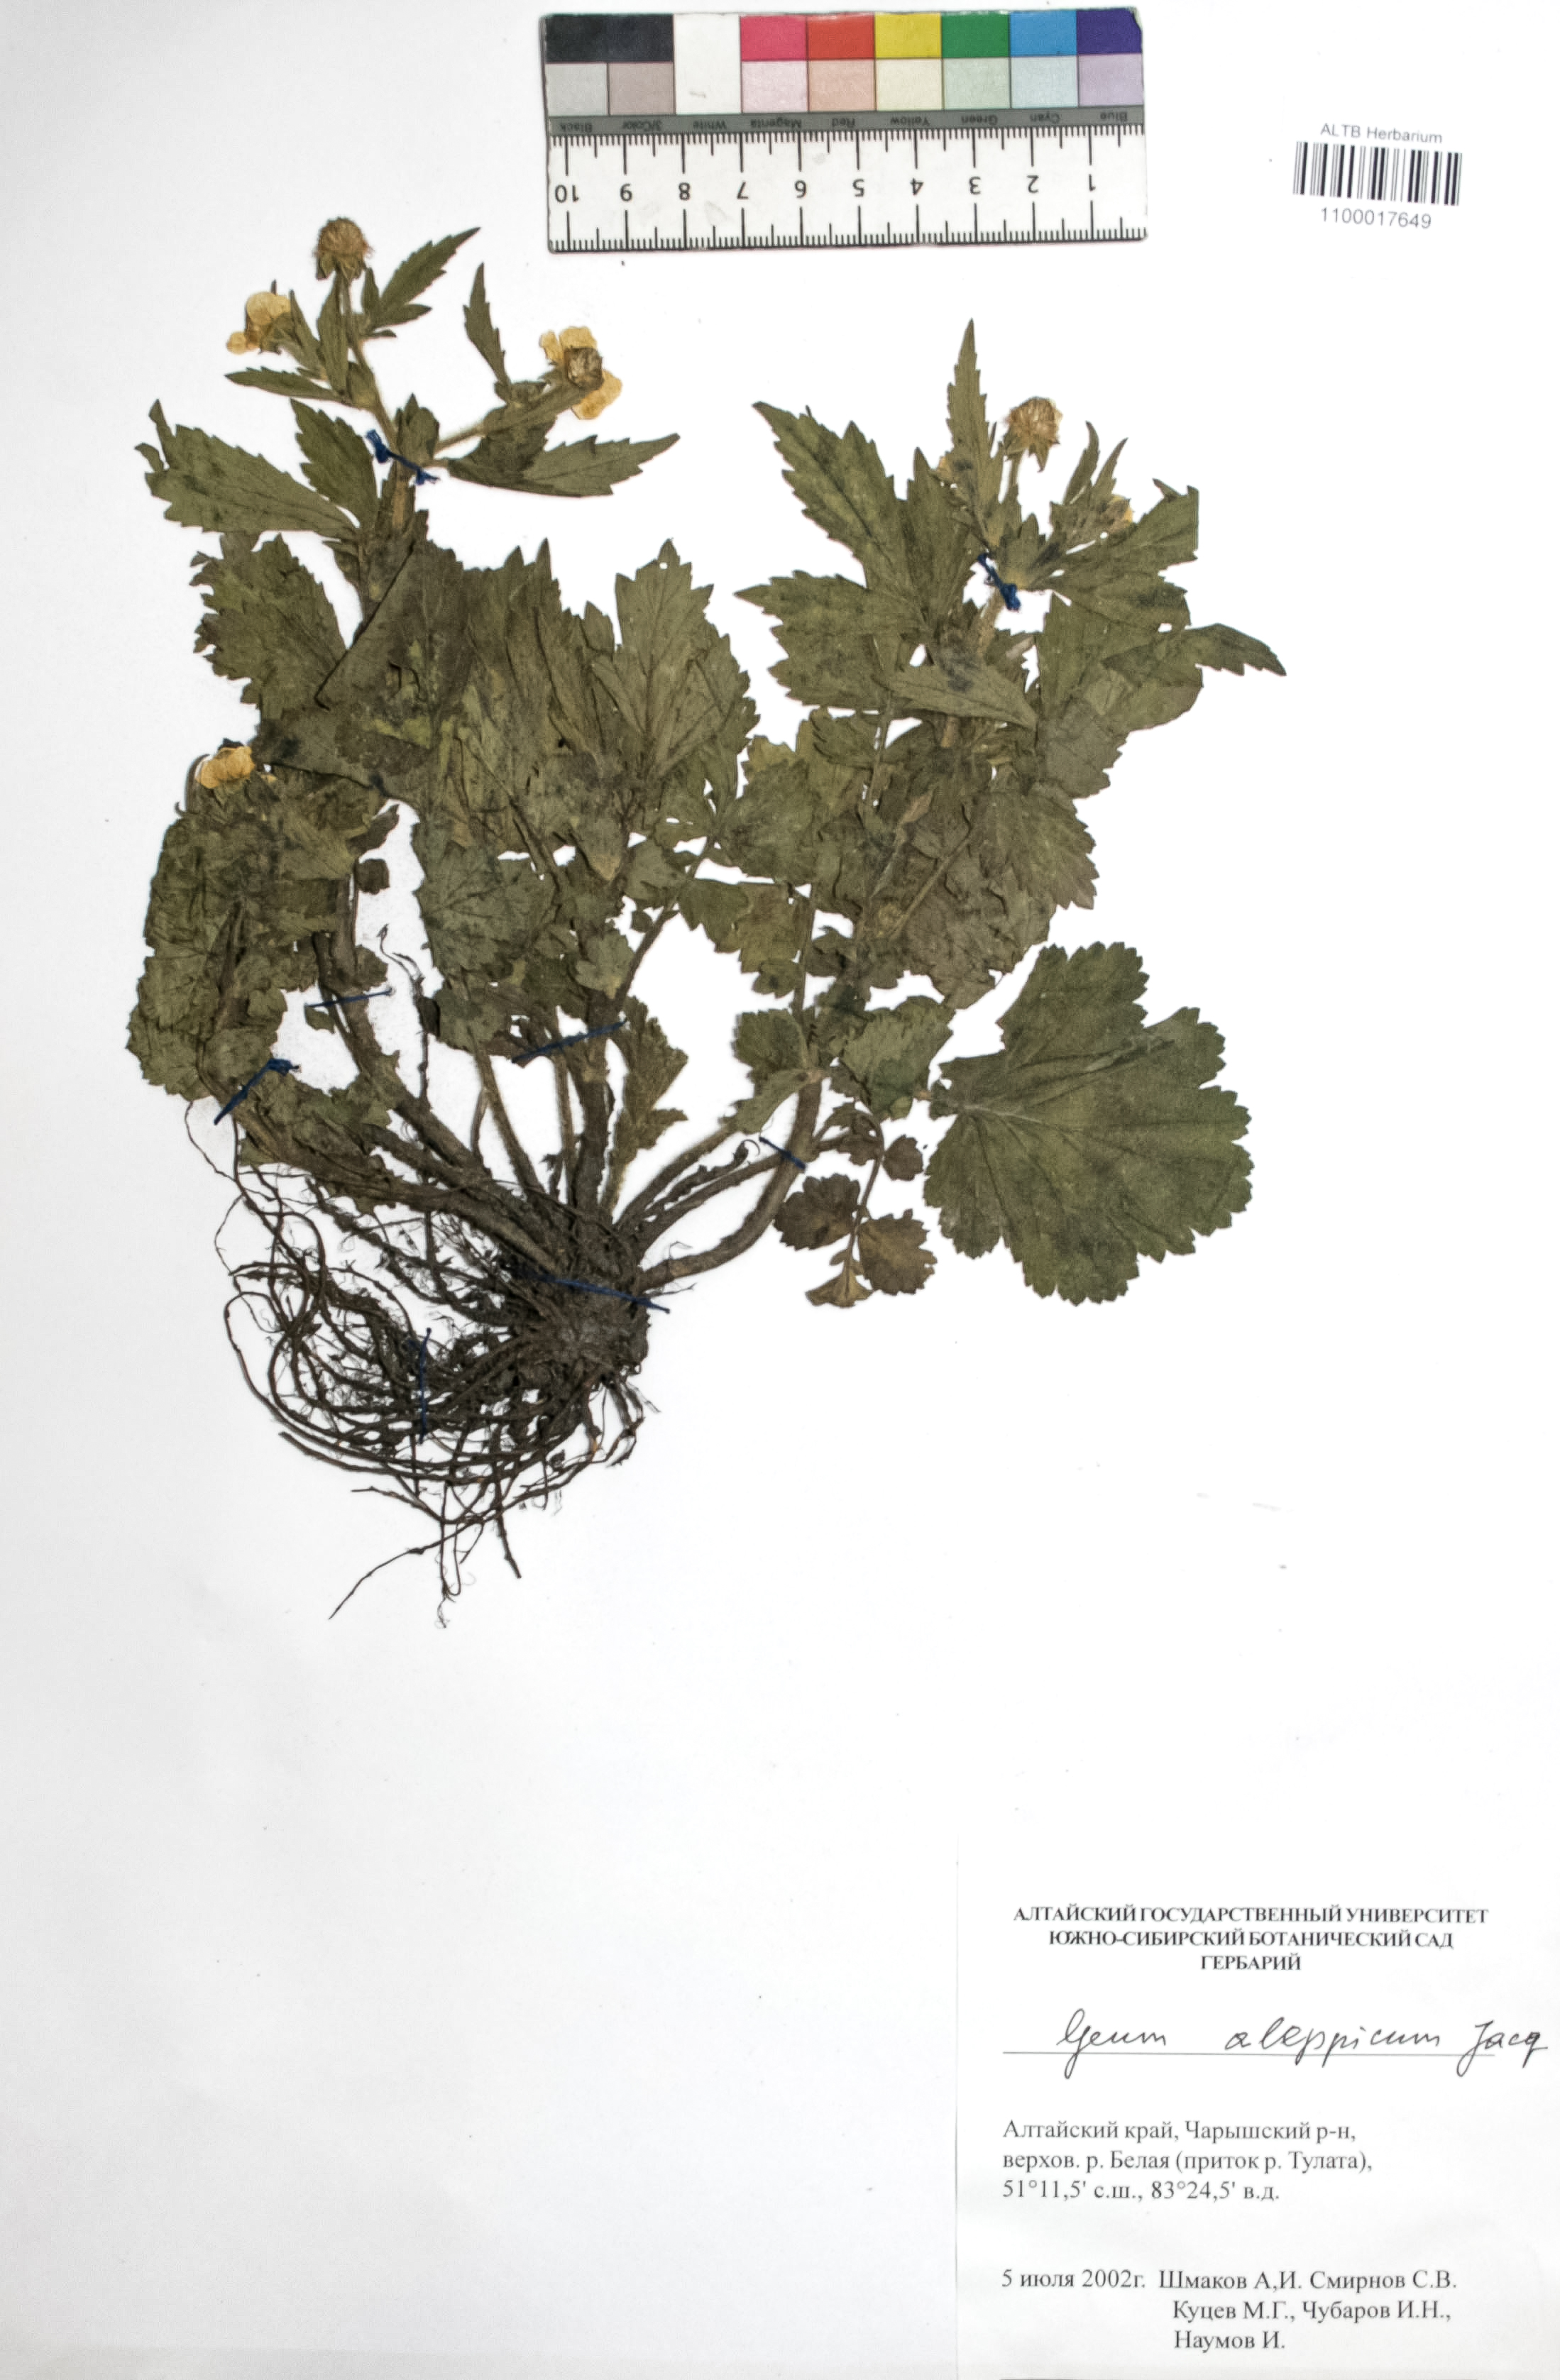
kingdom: Plantae
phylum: Tracheophyta
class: Magnoliopsida
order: Rosales
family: Rosaceae
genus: Geum
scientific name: Geum aleppicum
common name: Yellow avens
